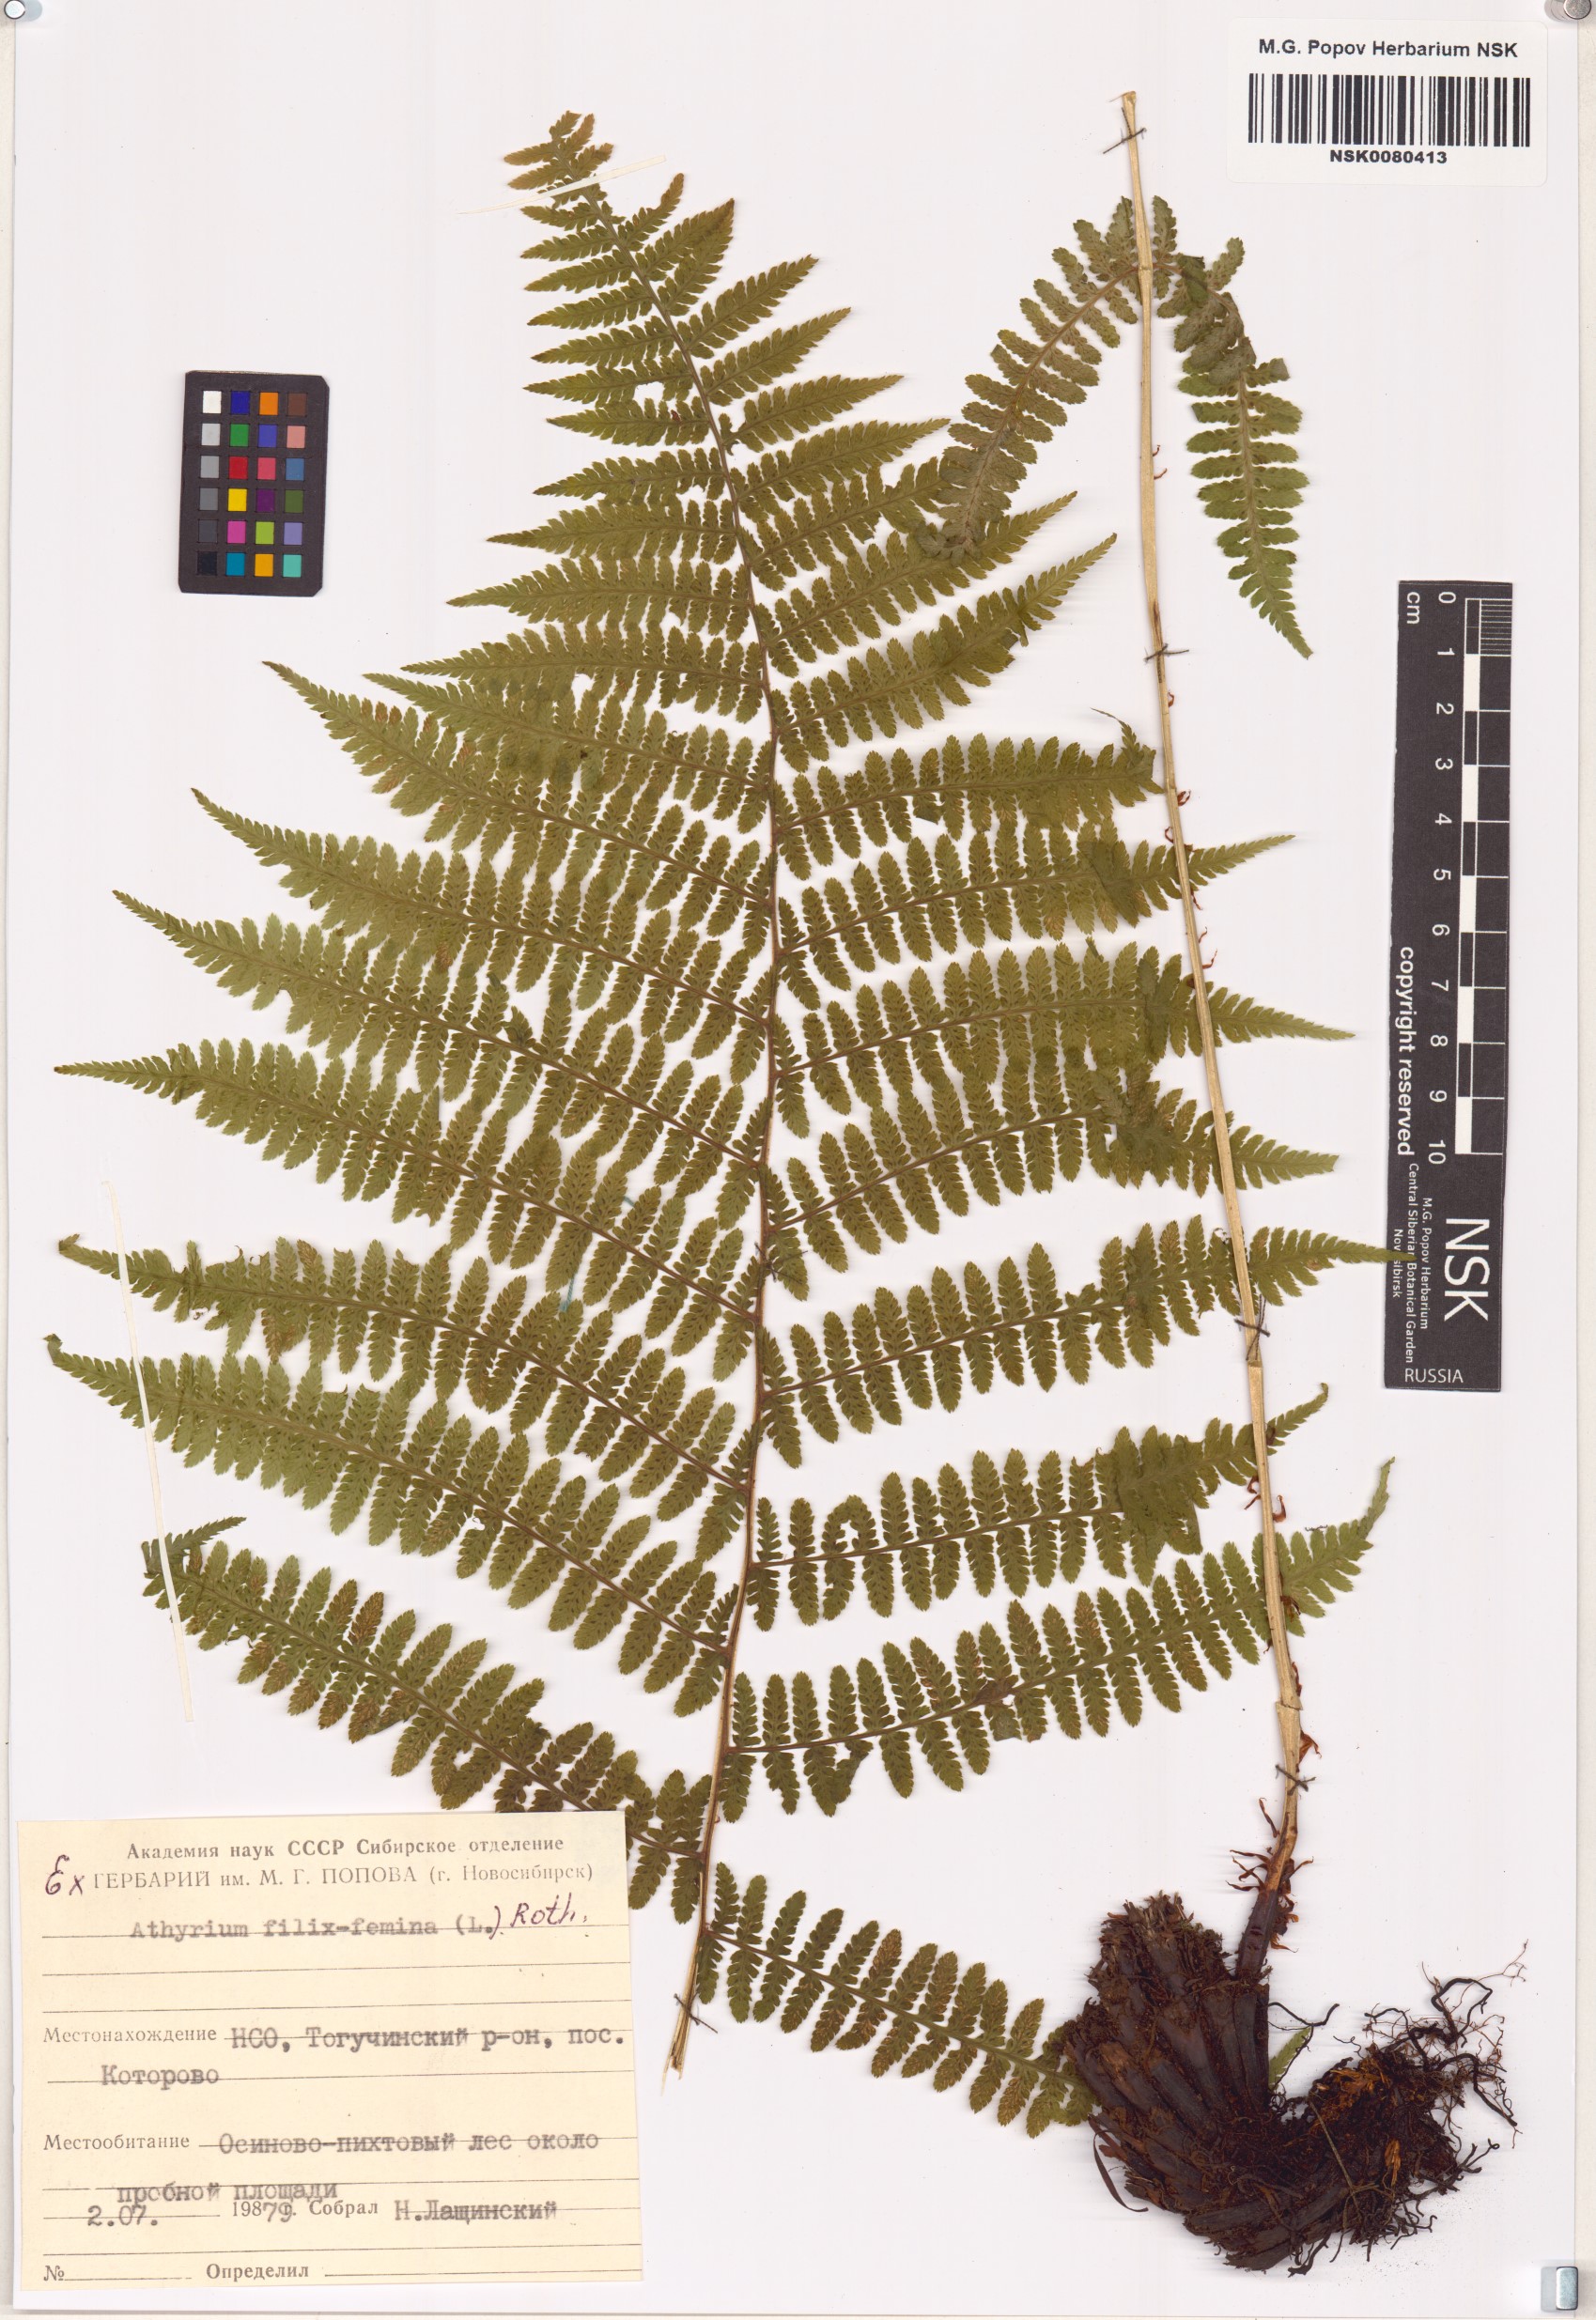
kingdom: Plantae
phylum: Tracheophyta
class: Polypodiopsida
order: Polypodiales
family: Athyriaceae
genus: Athyrium
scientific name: Athyrium filix-femina
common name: Lady fern
